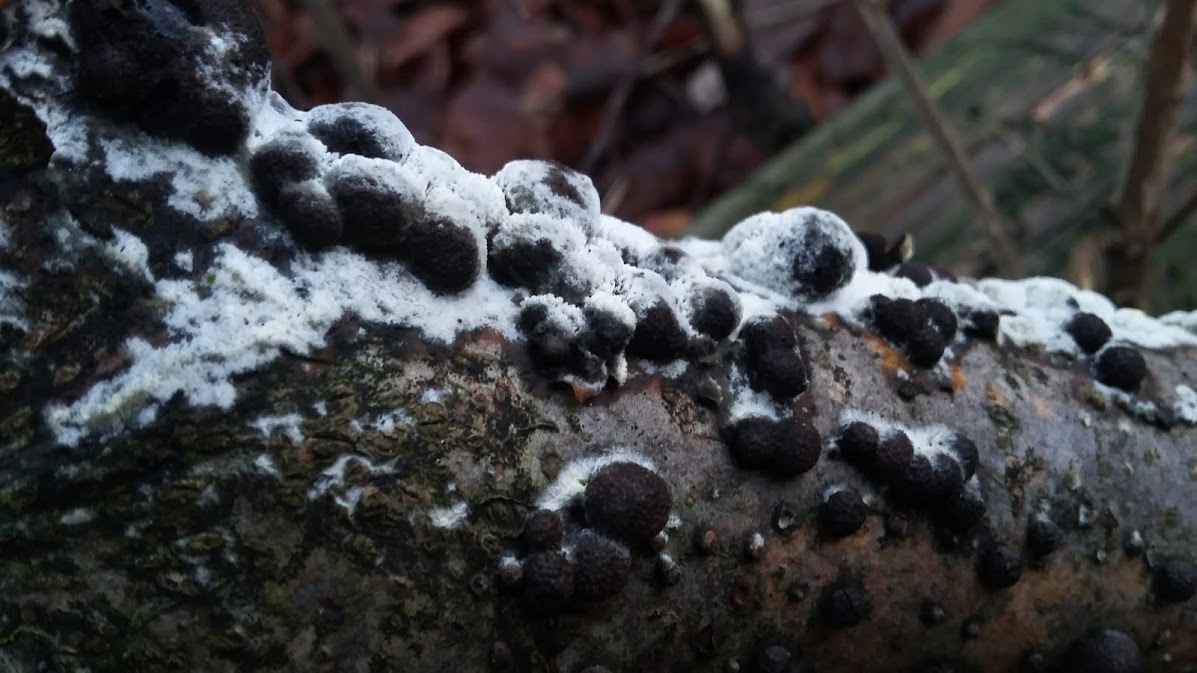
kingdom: Fungi
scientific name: Fungi
